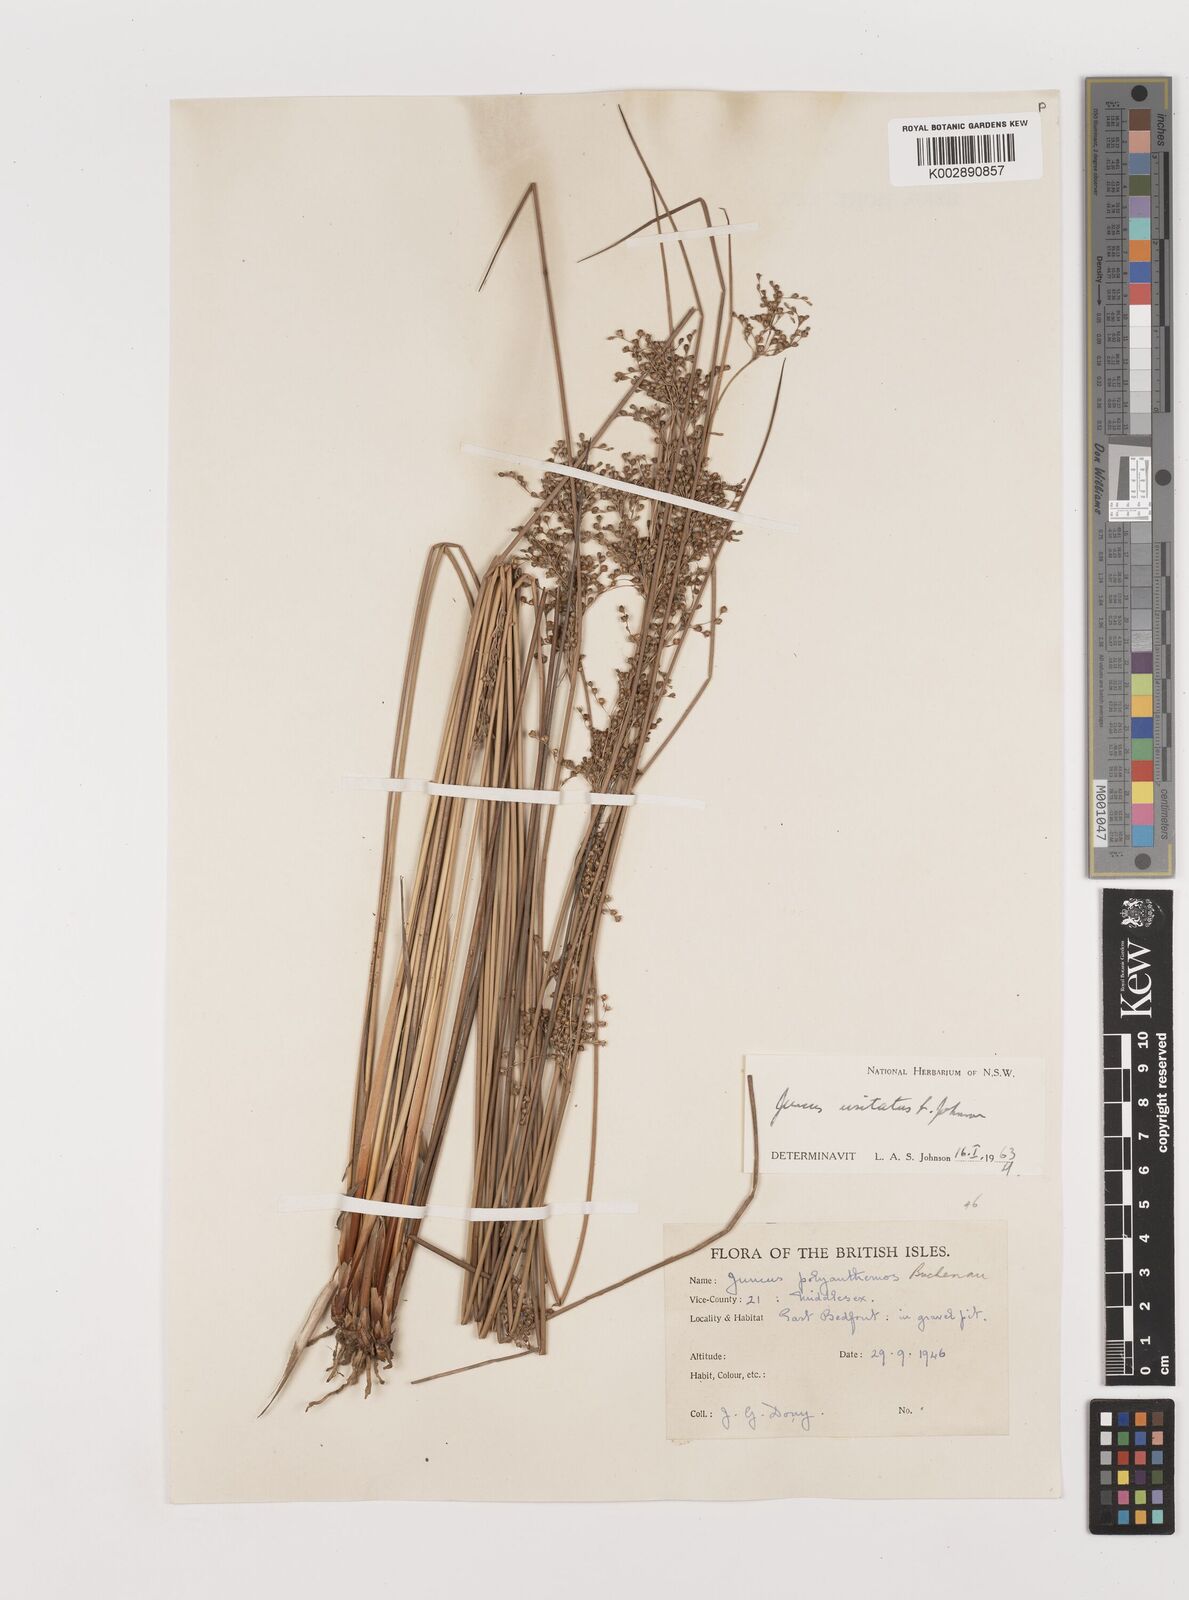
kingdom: Plantae
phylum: Tracheophyta
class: Liliopsida
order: Poales
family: Juncaceae
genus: Juncus
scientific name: Juncus usitatus
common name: Rush
